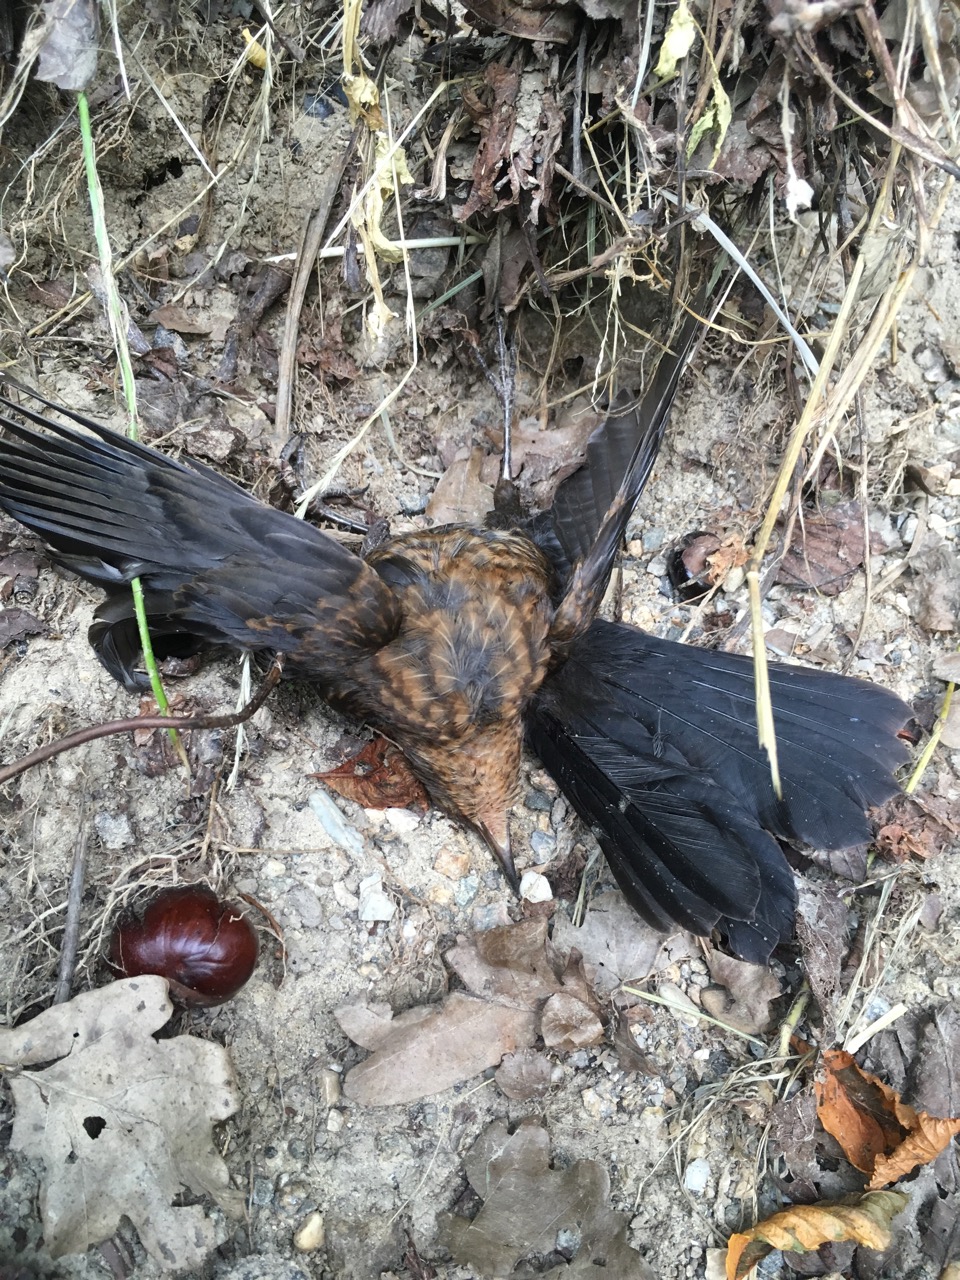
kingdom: Animalia
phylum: Chordata
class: Aves
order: Passeriformes
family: Turdidae
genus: Turdus
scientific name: Turdus merula
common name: Common blackbird
